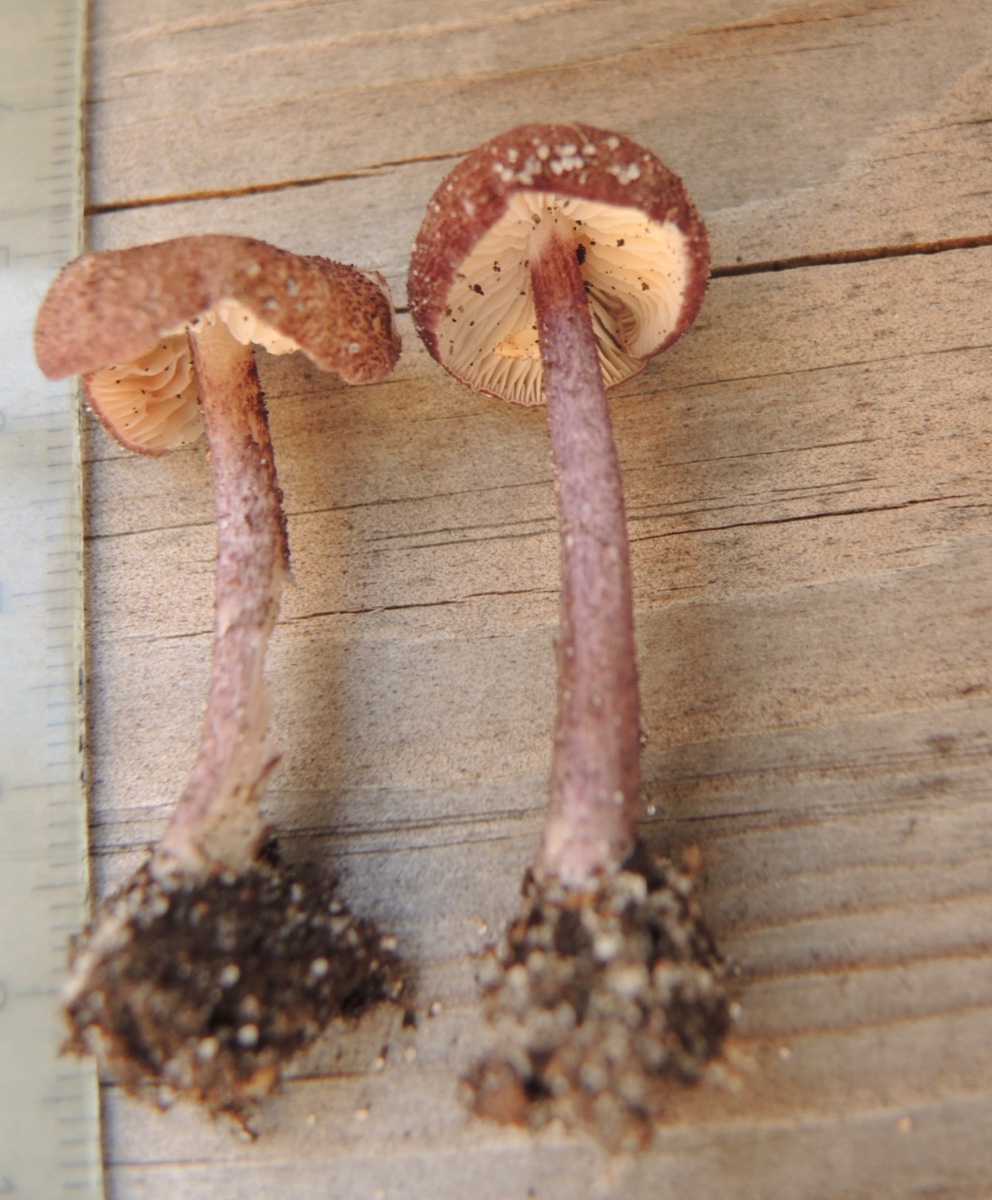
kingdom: Fungi
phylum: Basidiomycota
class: Agaricomycetes
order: Agaricales
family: Entolomataceae
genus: Entoloma
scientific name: Entoloma allochroum
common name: Rødviolet rødblad
